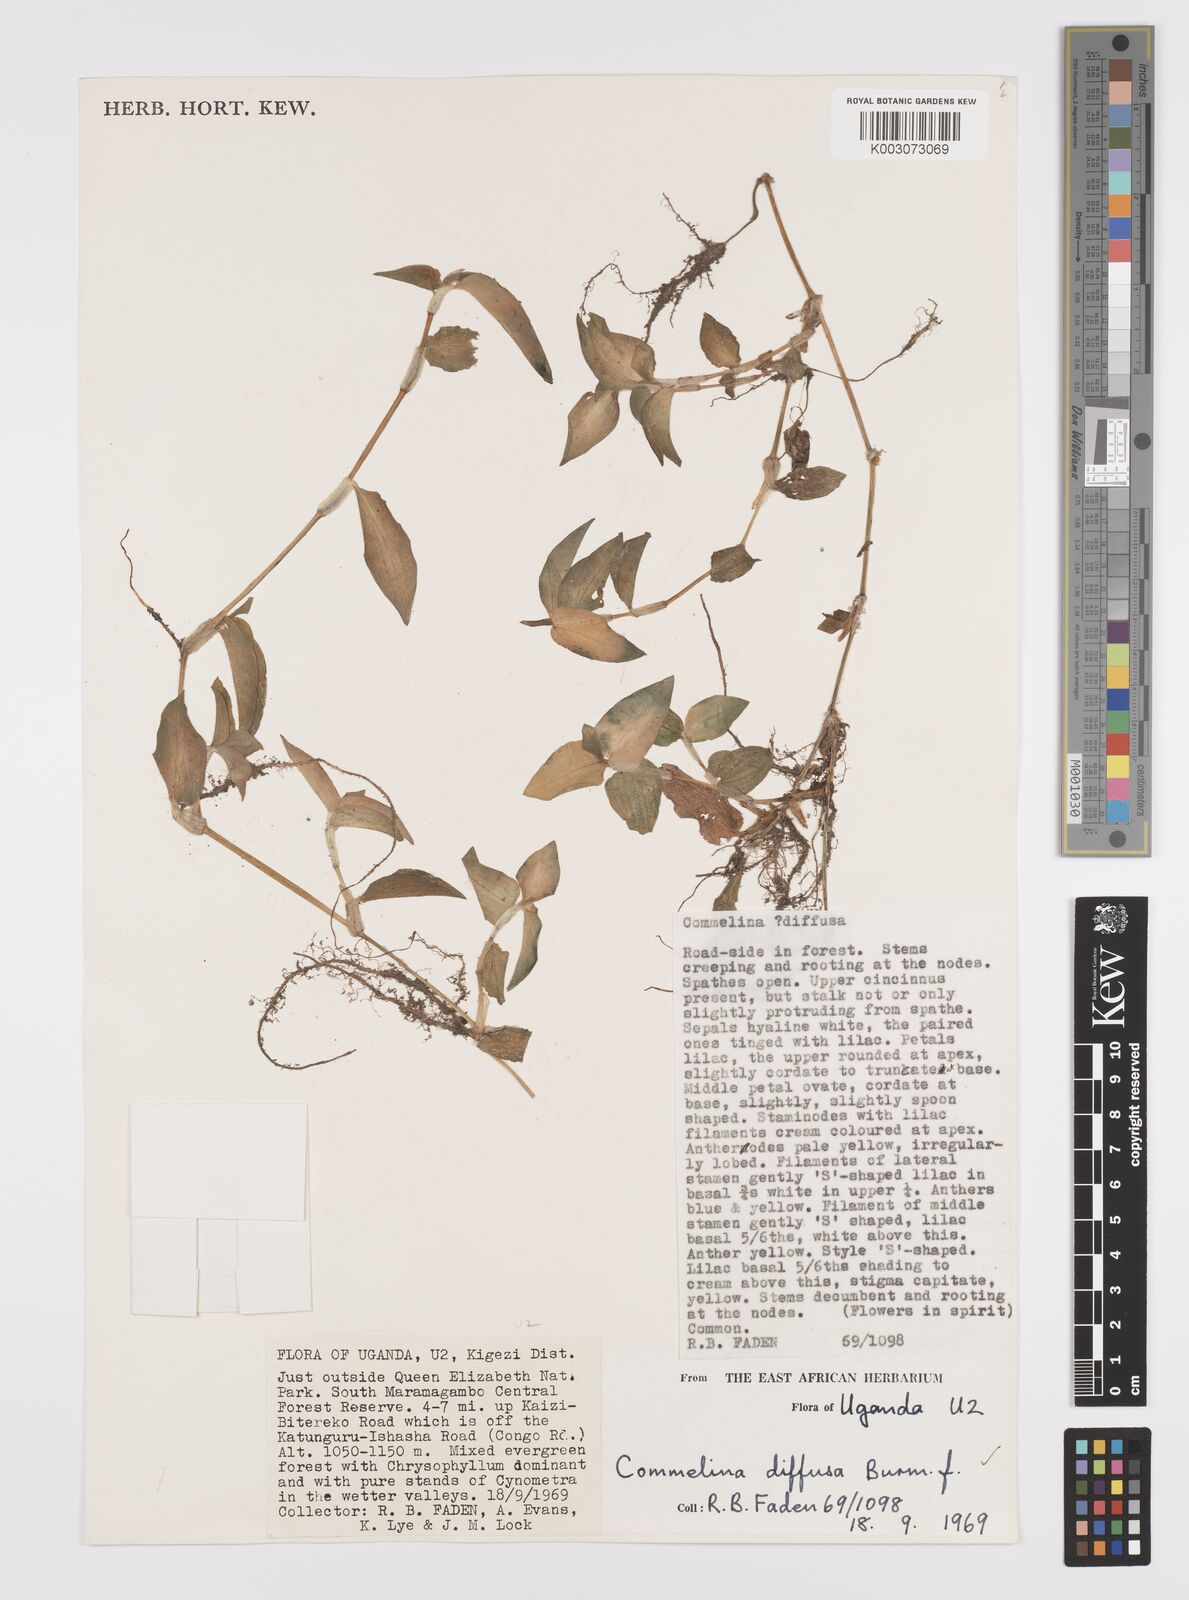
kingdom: Plantae
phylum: Tracheophyta
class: Liliopsida
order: Commelinales
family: Commelinaceae
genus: Commelina
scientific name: Commelina diffusa
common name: Climbing dayflower
